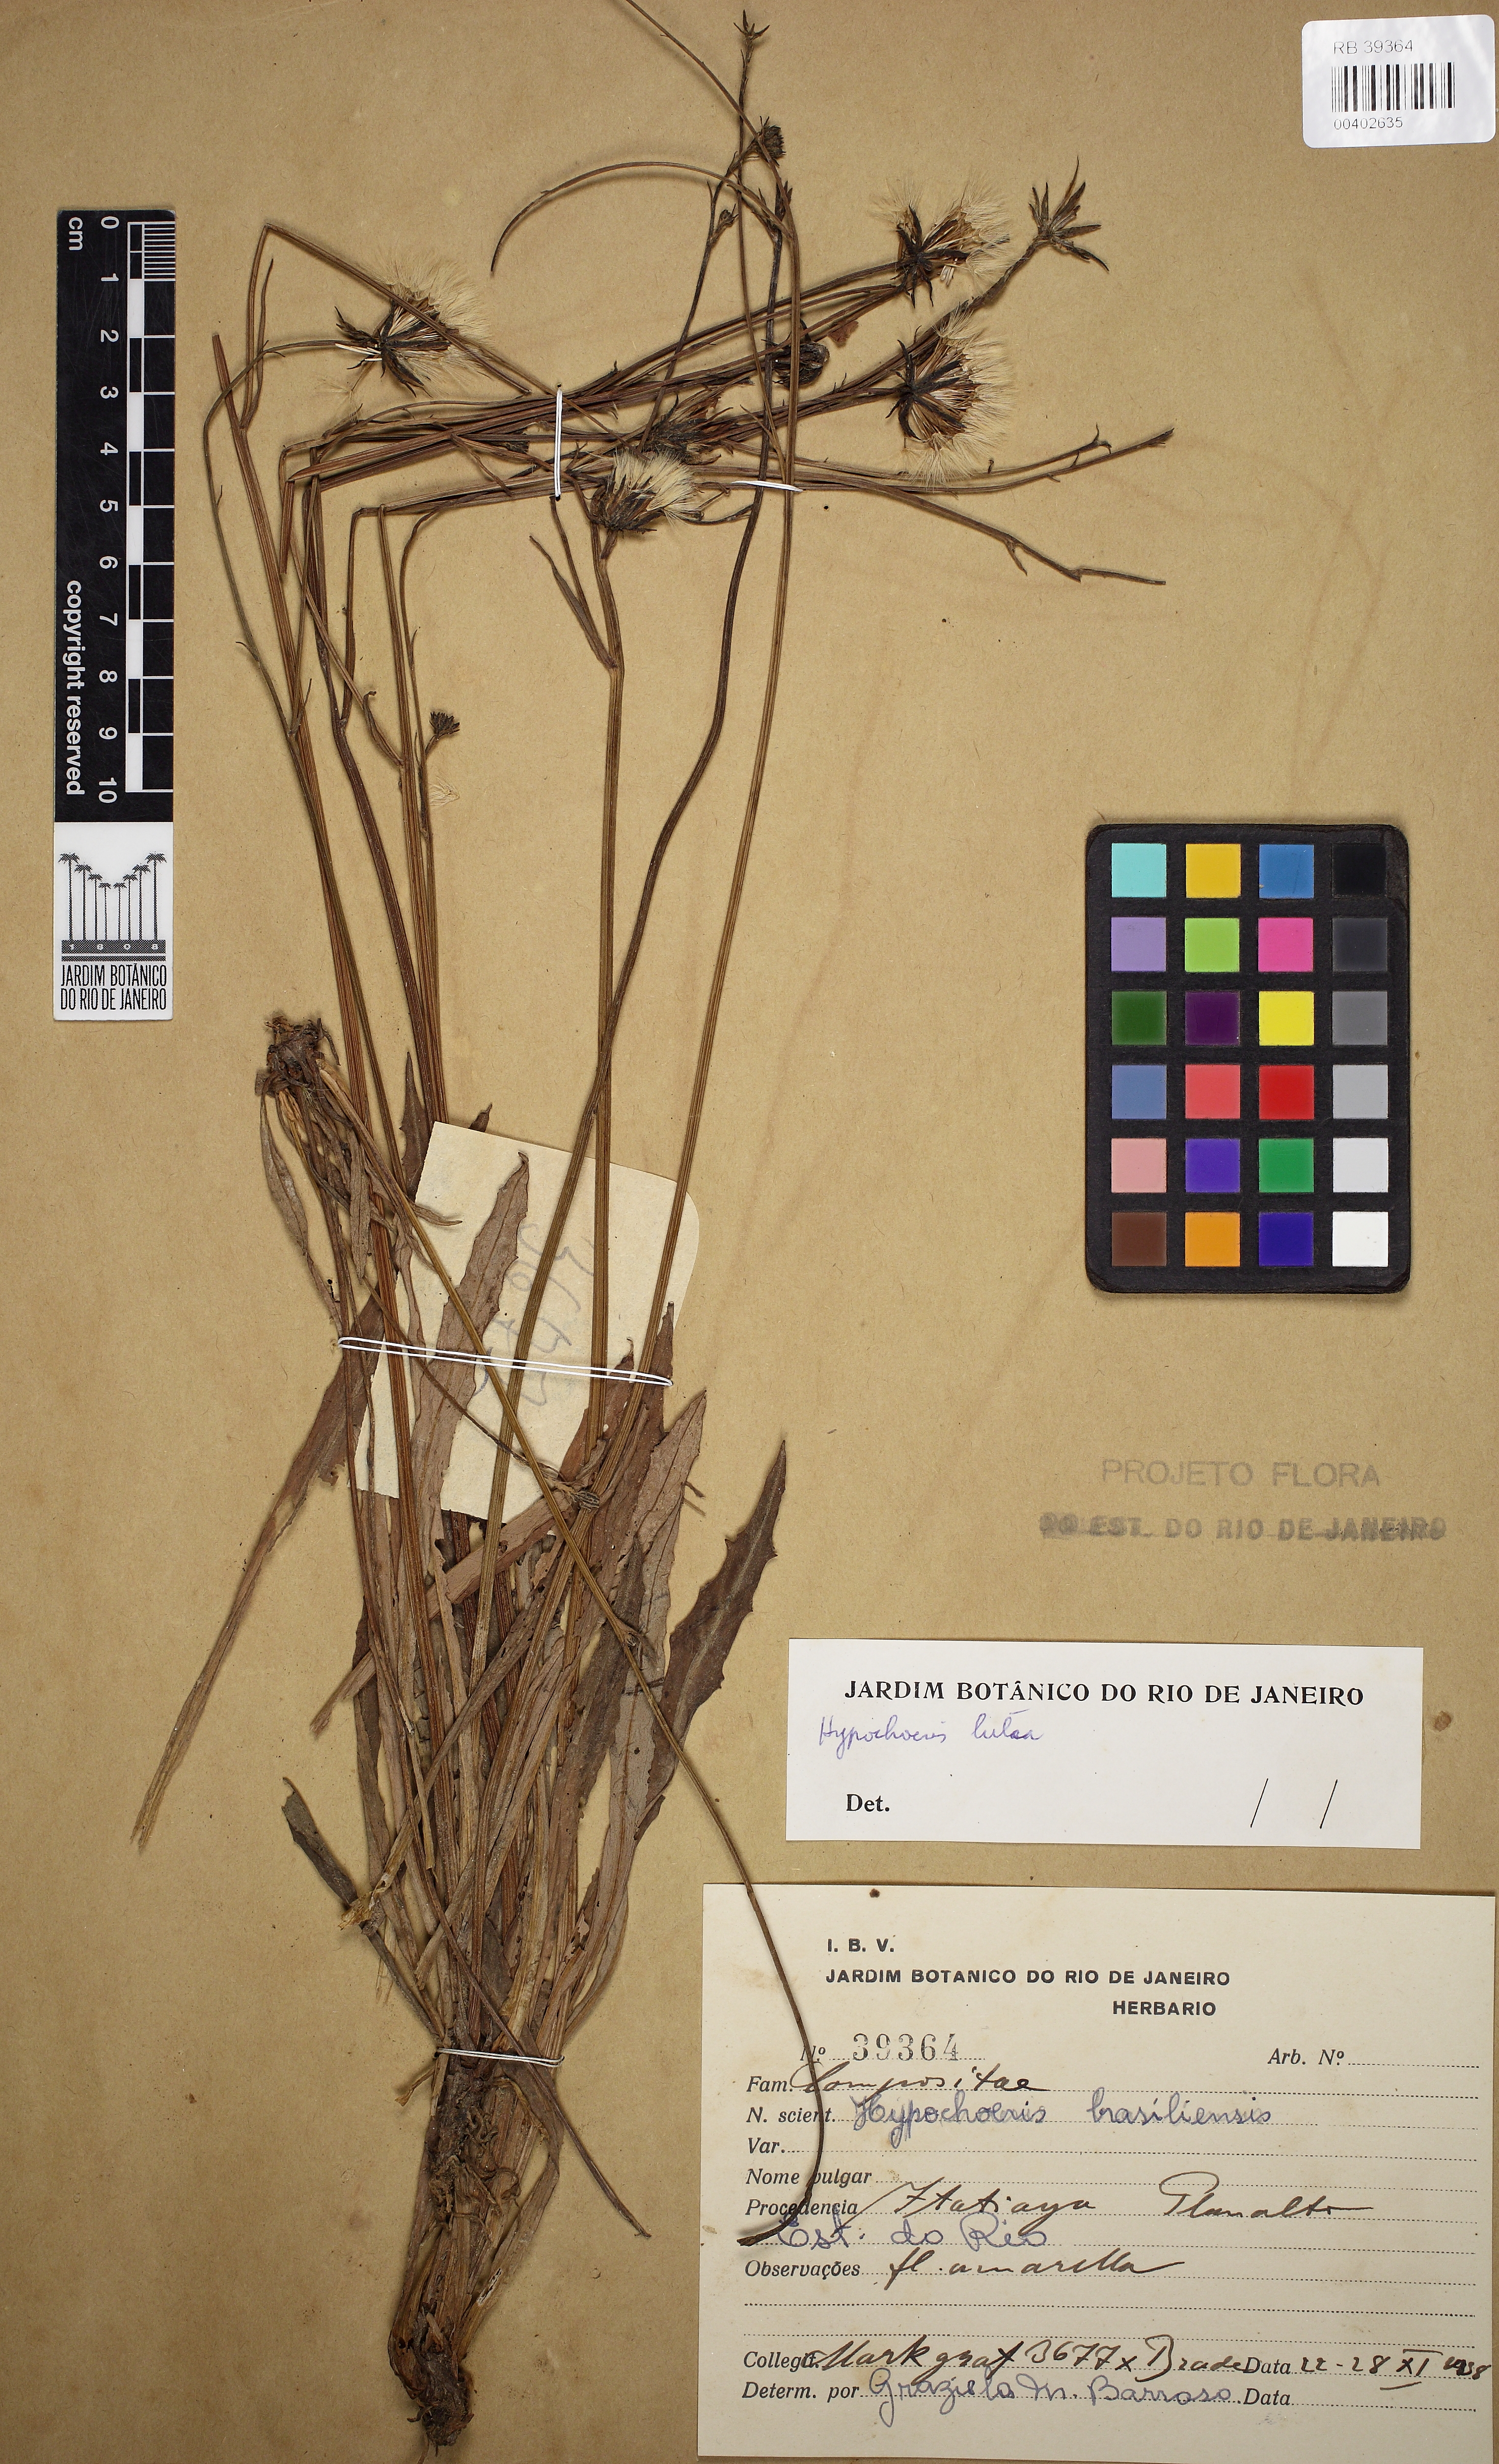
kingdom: Plantae
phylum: Tracheophyta
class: Magnoliopsida
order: Asterales
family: Asteraceae
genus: Hypochaeris
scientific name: Hypochaeris lutea
